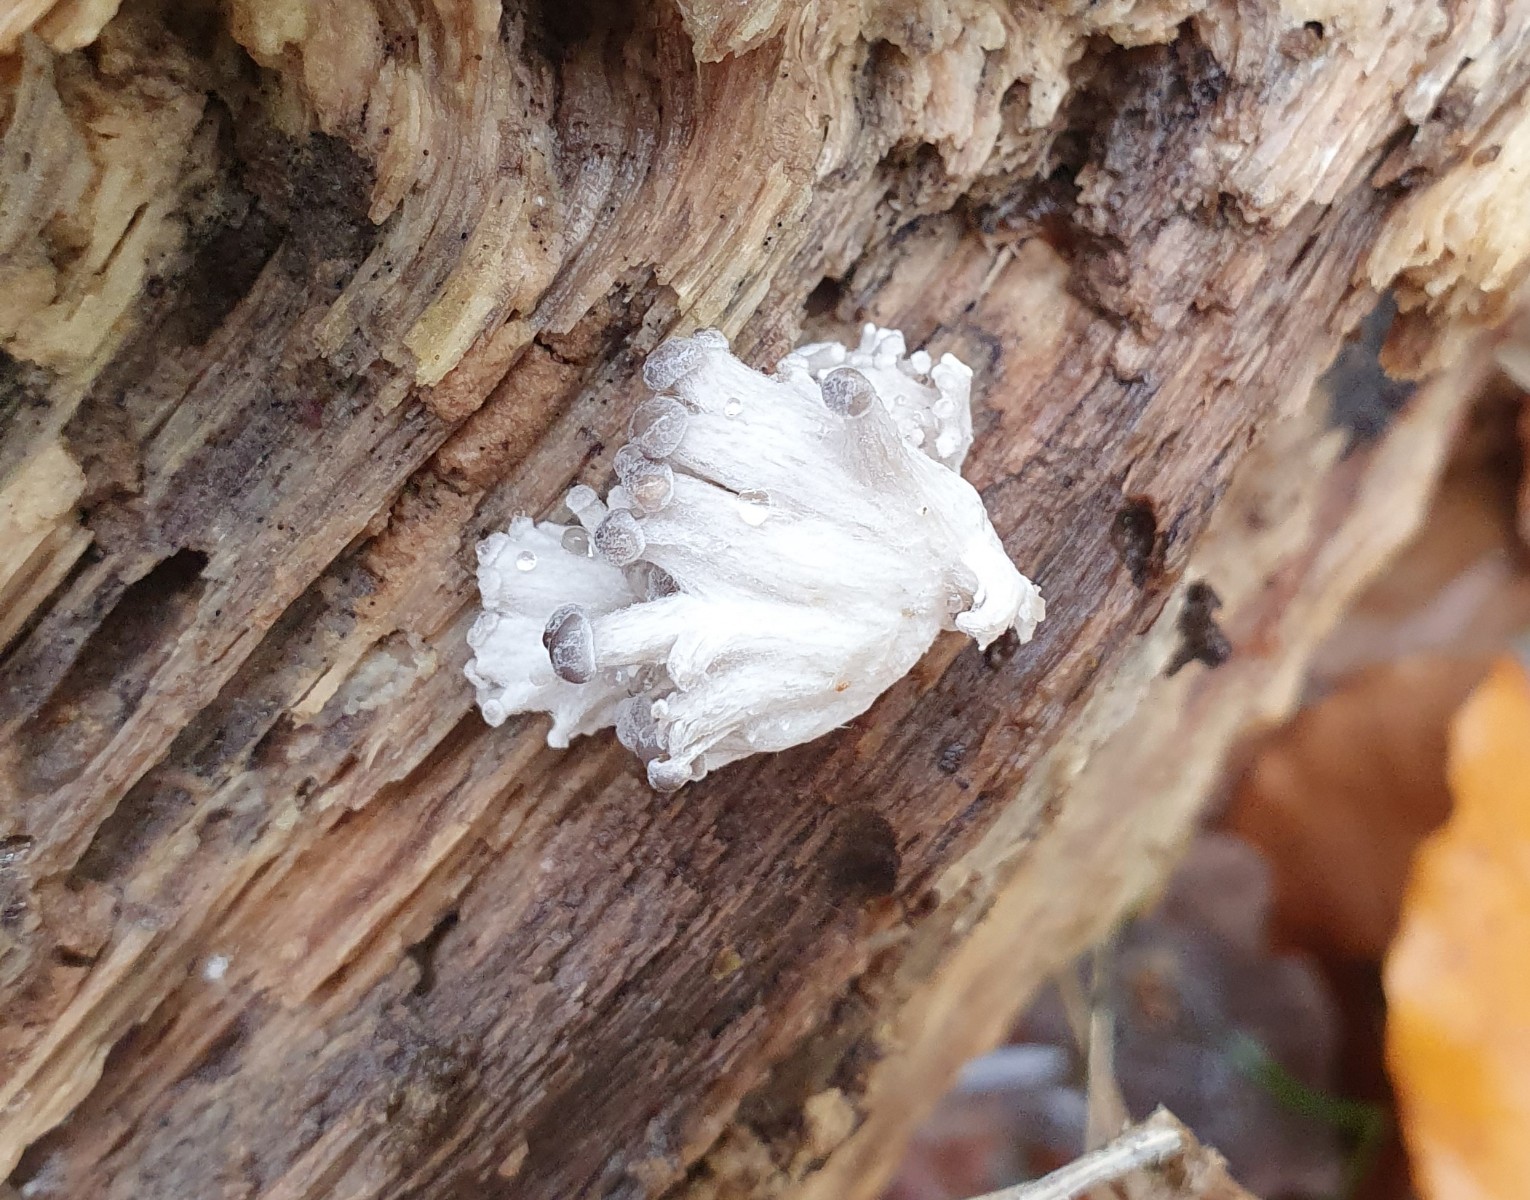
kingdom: Fungi
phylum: Basidiomycota
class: Agaricomycetes
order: Agaricales
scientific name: Agaricales
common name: champignonordenen
